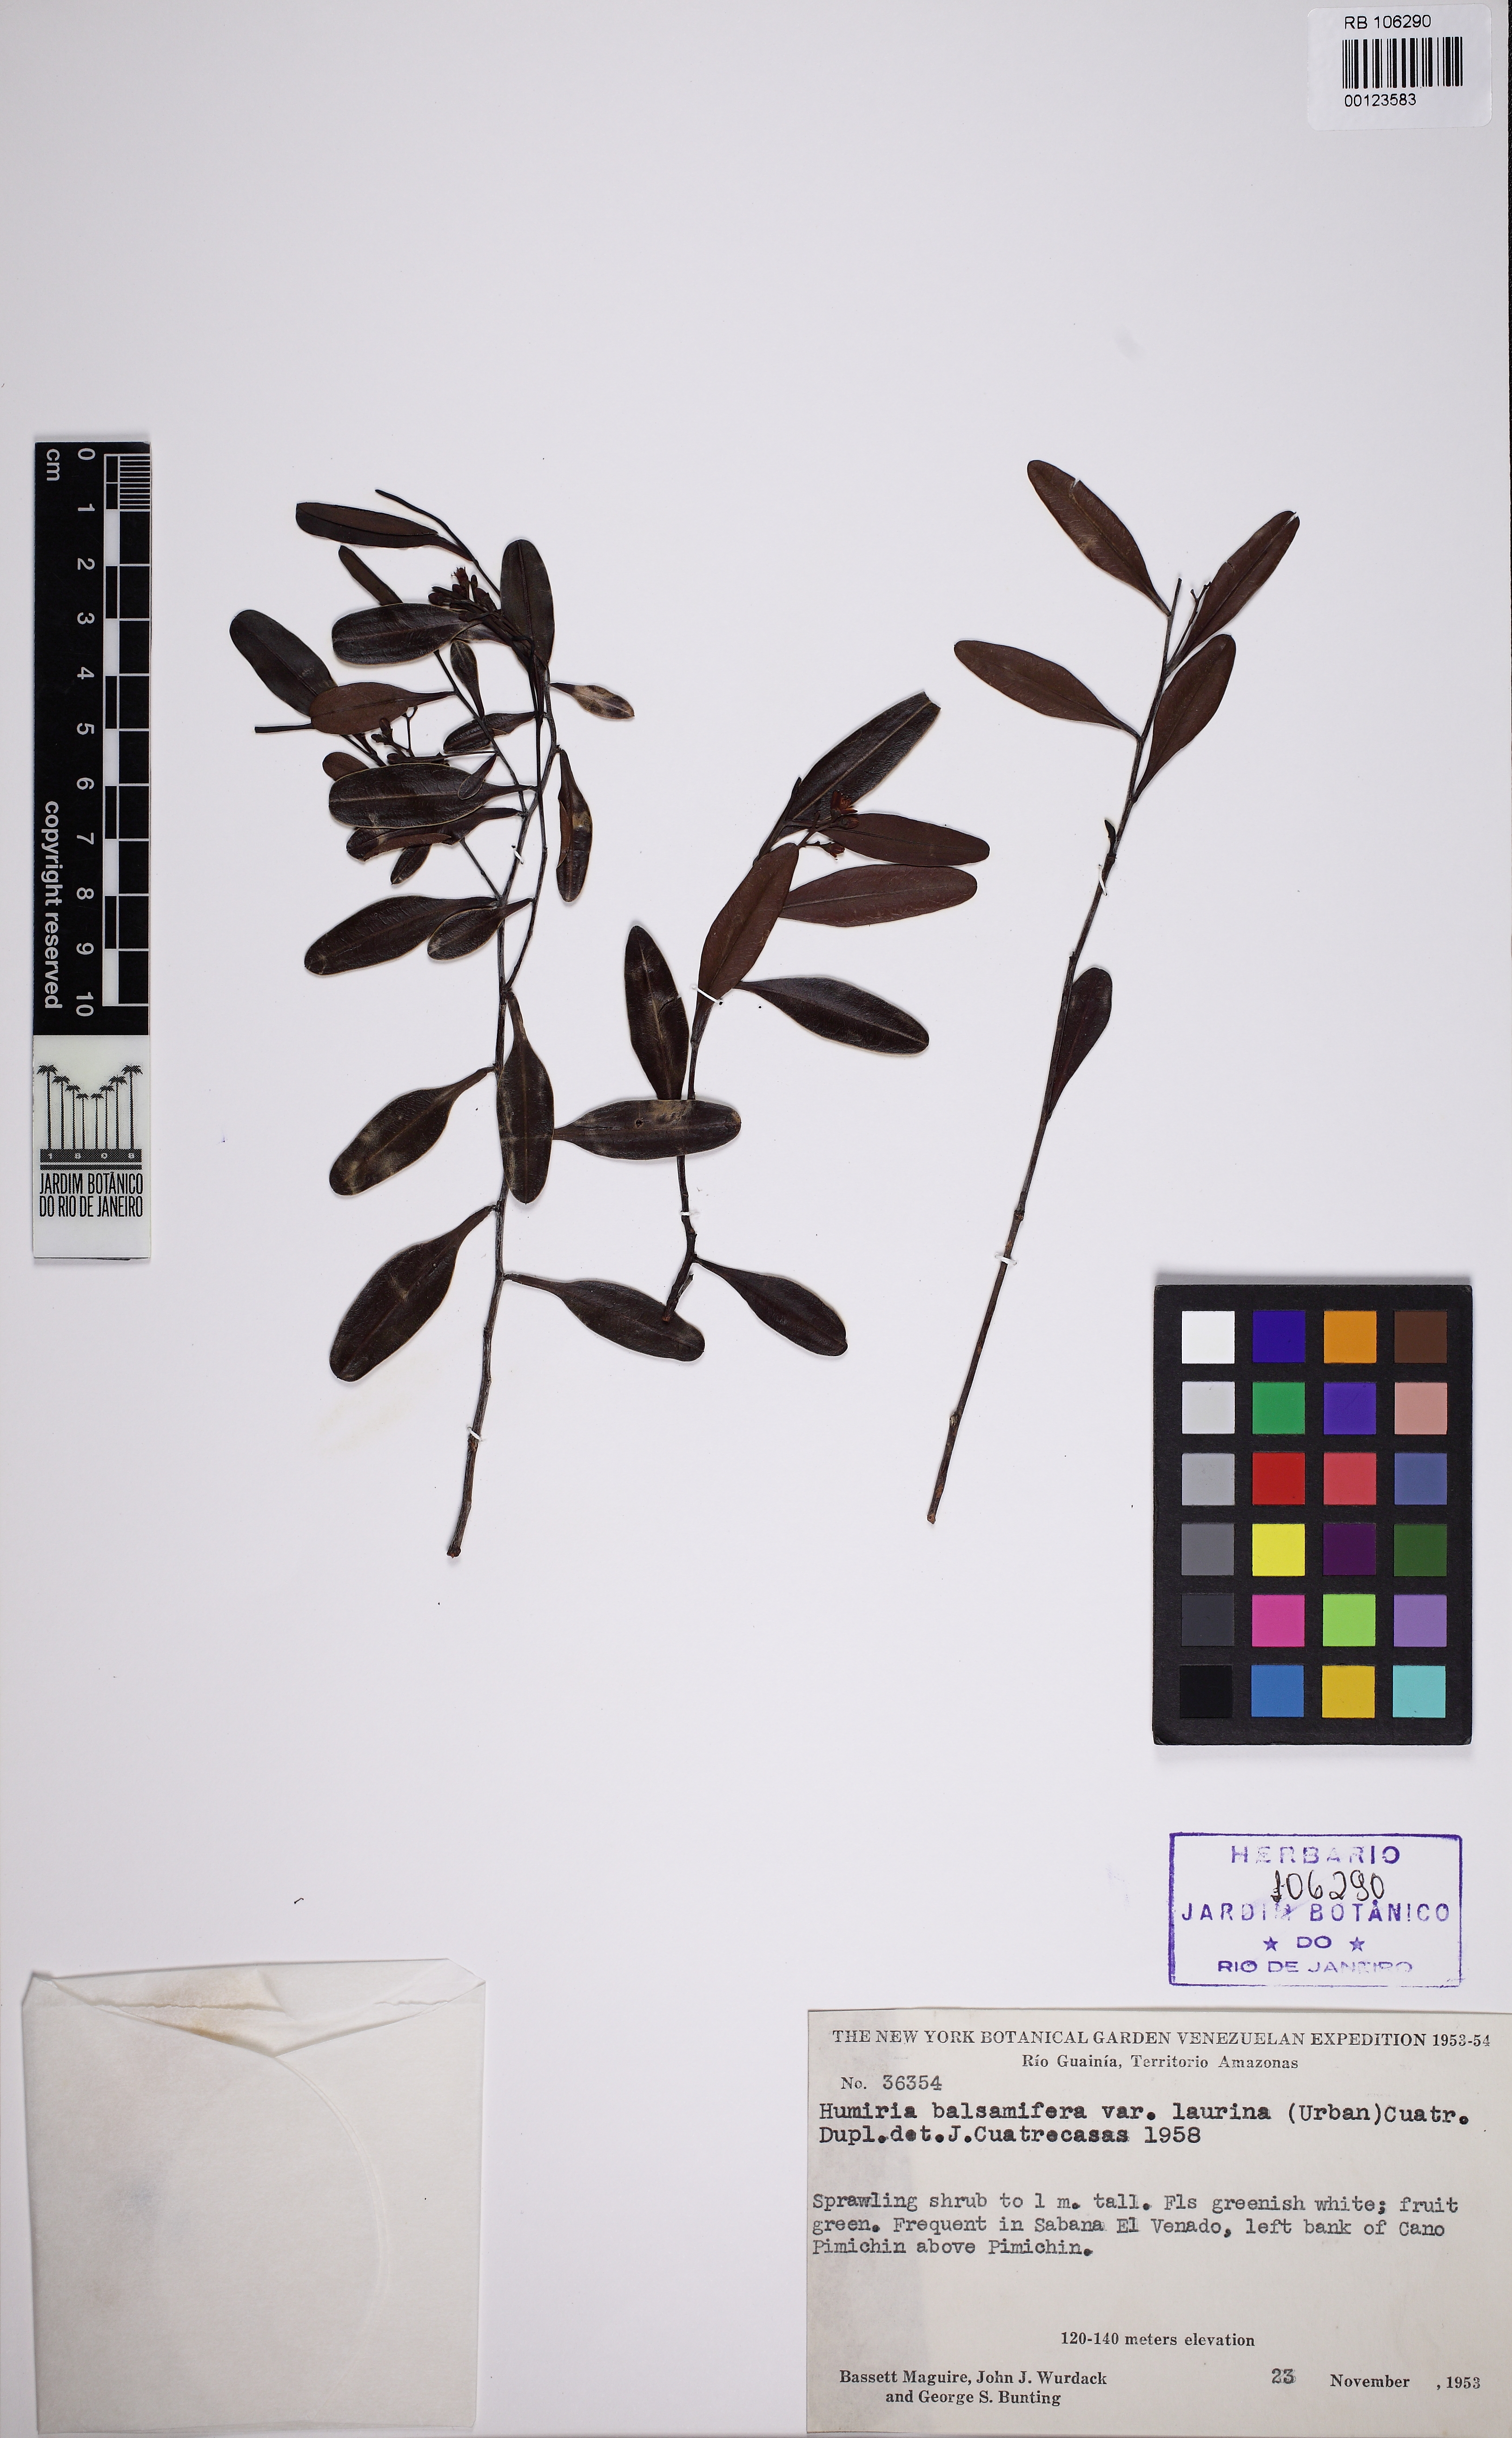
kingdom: Plantae
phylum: Tracheophyta
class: Magnoliopsida
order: Malpighiales
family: Humiriaceae
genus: Humiria
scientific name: Humiria balsamifera
